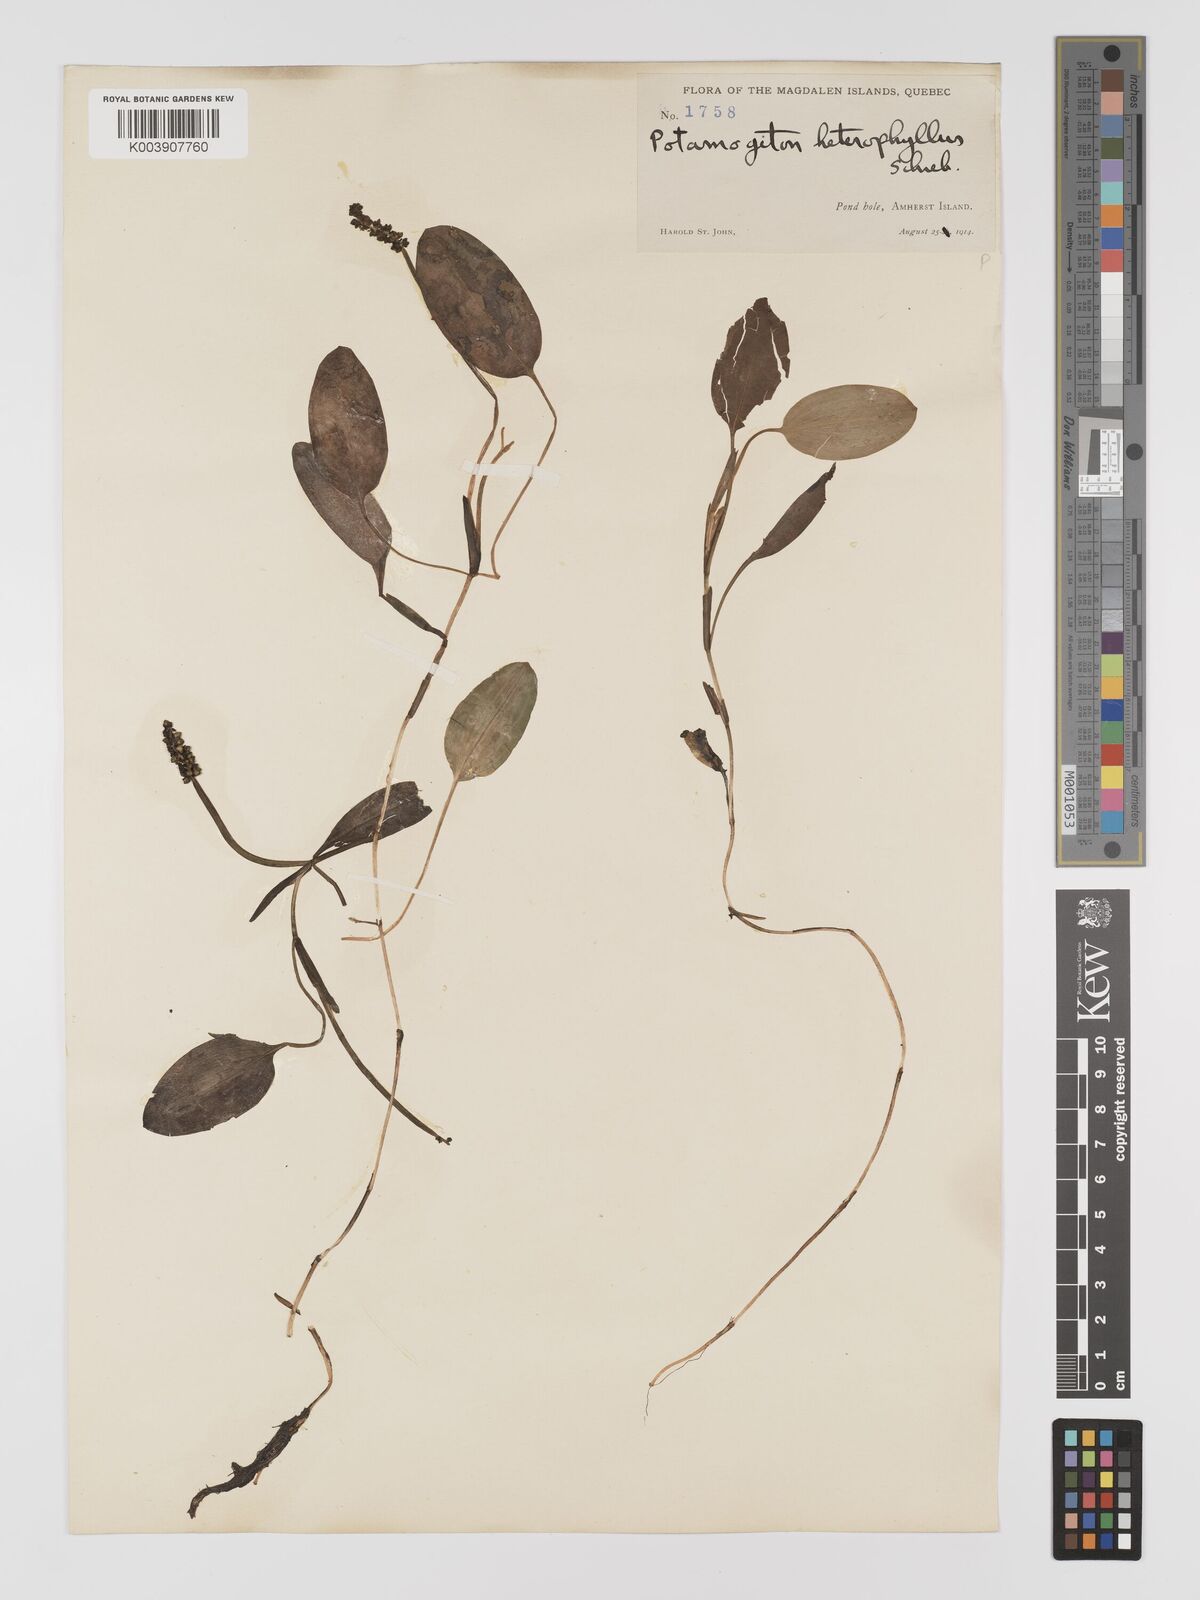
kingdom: Plantae
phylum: Tracheophyta
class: Liliopsida
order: Alismatales
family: Potamogetonaceae
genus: Potamogeton
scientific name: Potamogeton gramineus
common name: Various-leaved pondweed
